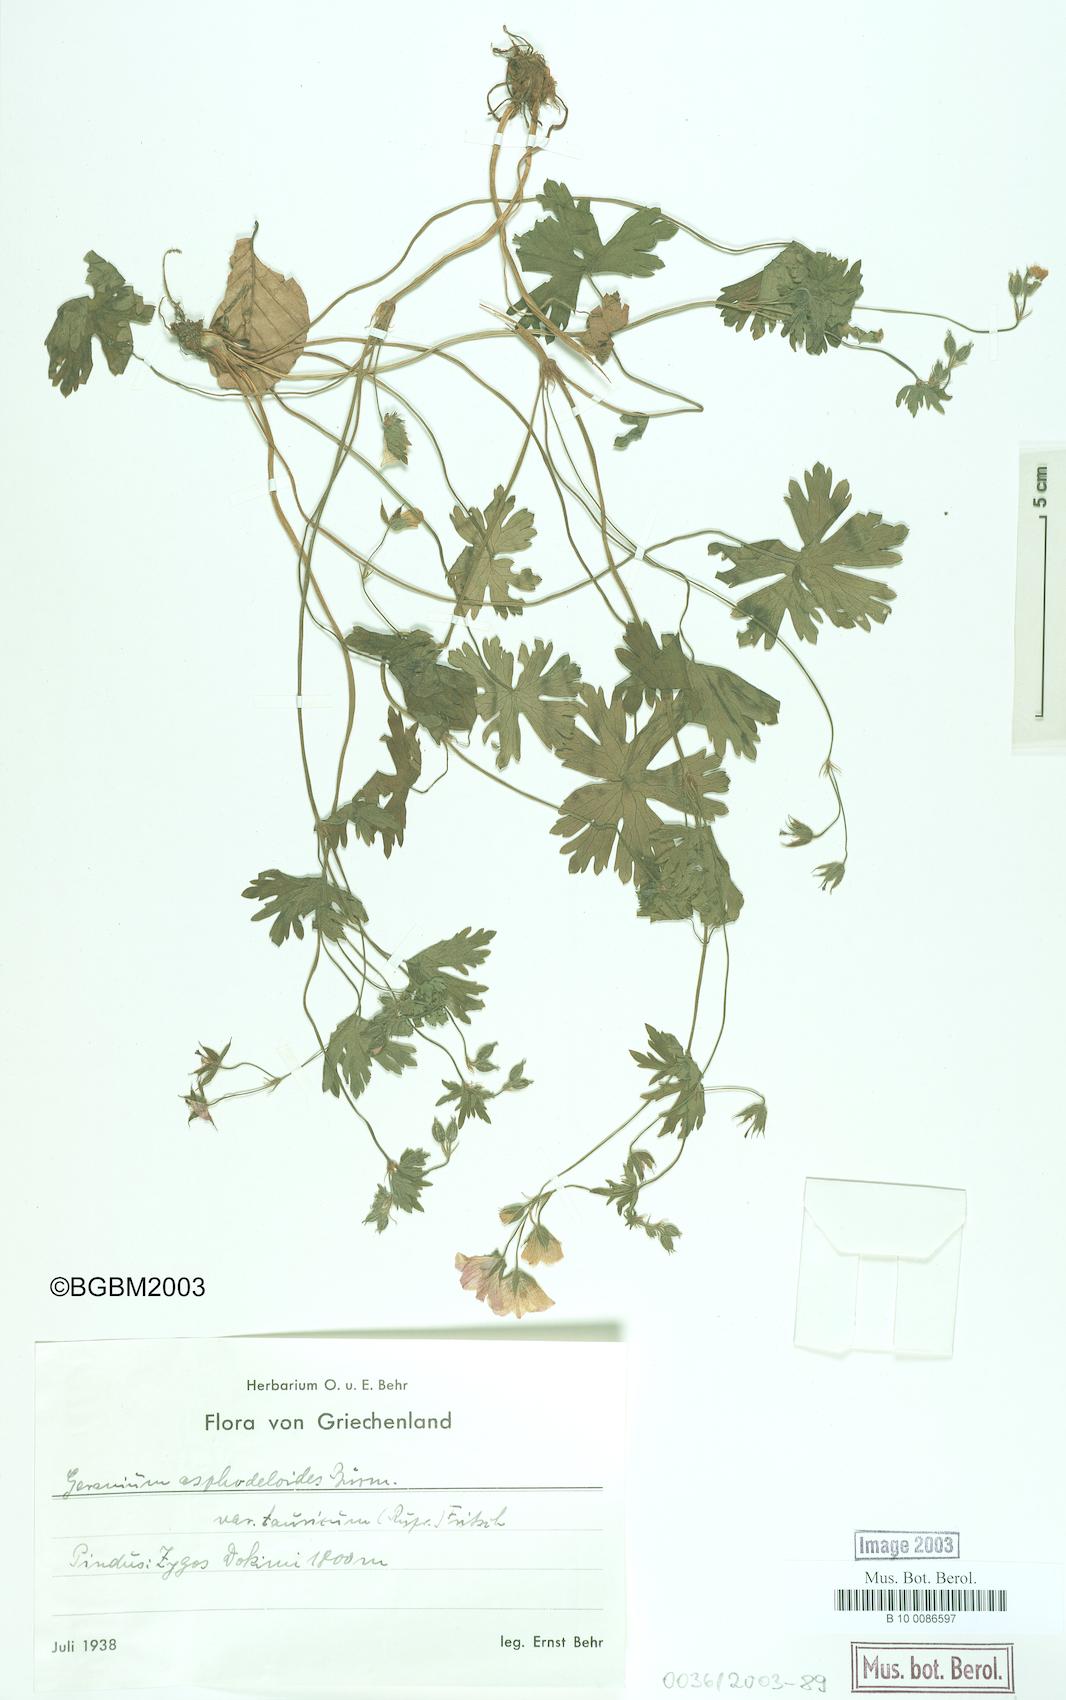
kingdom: Plantae
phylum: Tracheophyta
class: Magnoliopsida
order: Geraniales
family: Geraniaceae
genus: Geranium
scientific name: Geranium asphodeloides
